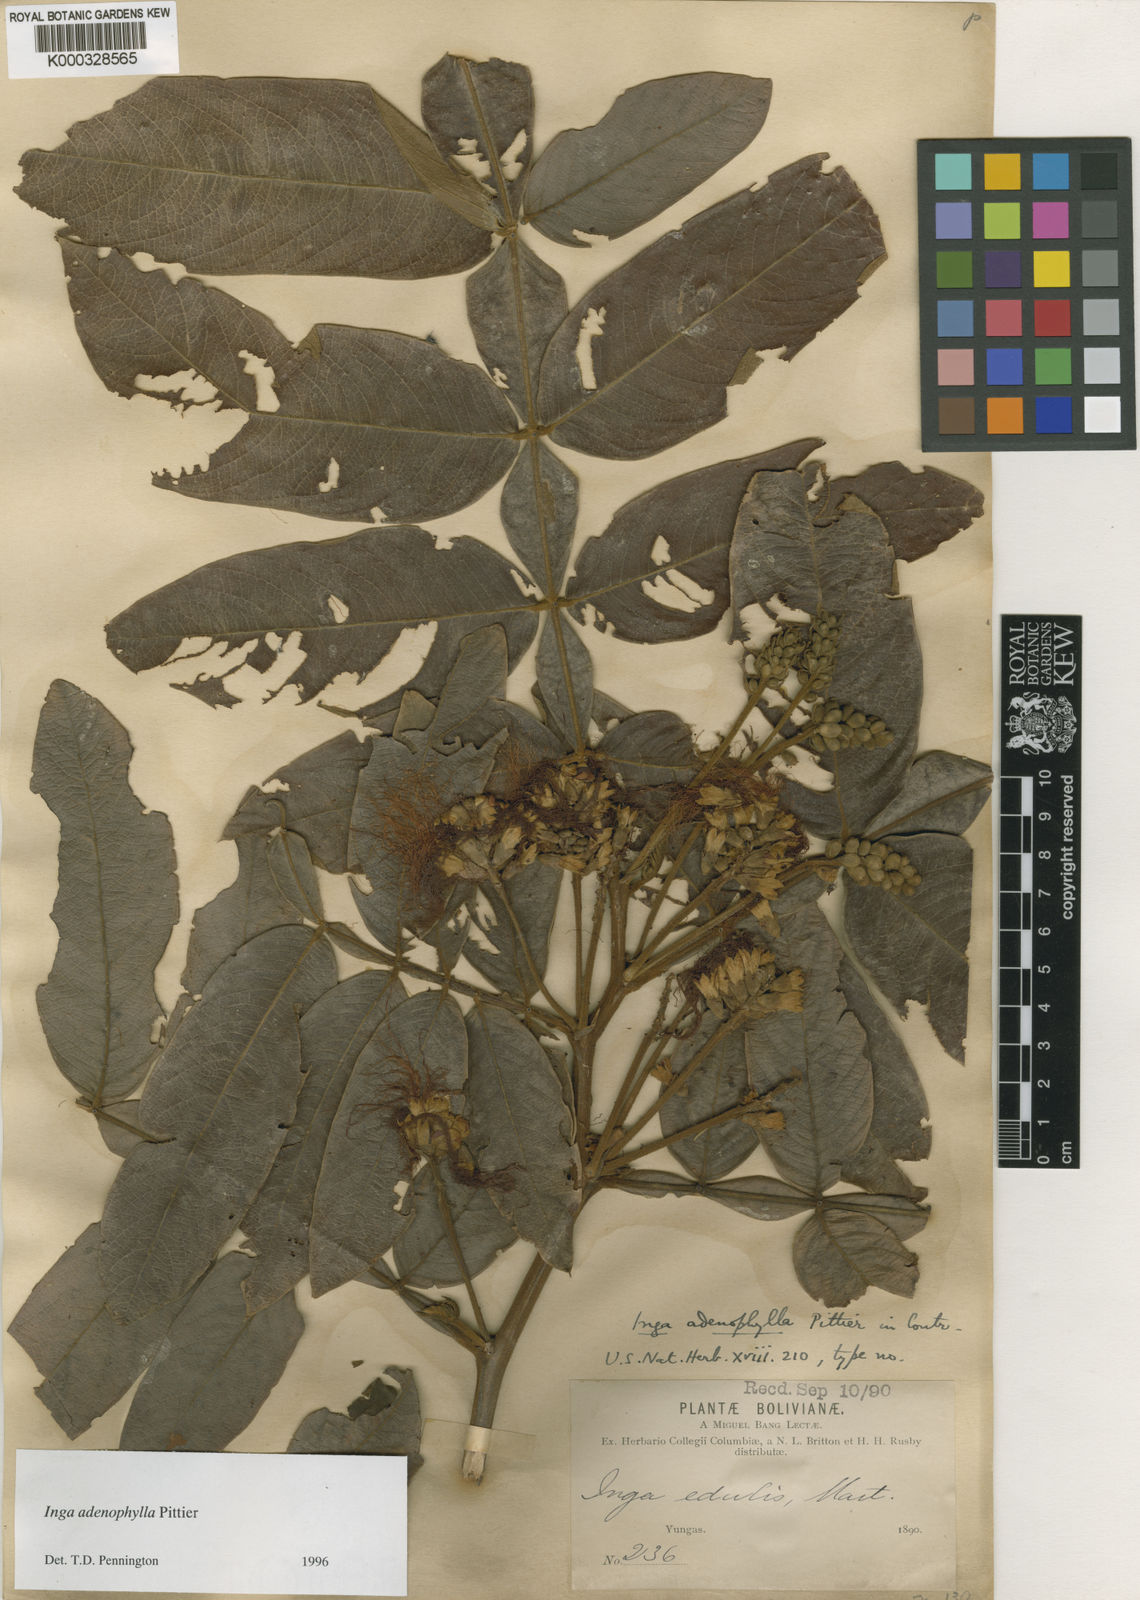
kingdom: Plantae
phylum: Tracheophyta
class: Magnoliopsida
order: Fabales
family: Fabaceae
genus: Inga
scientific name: Inga adenophylla
